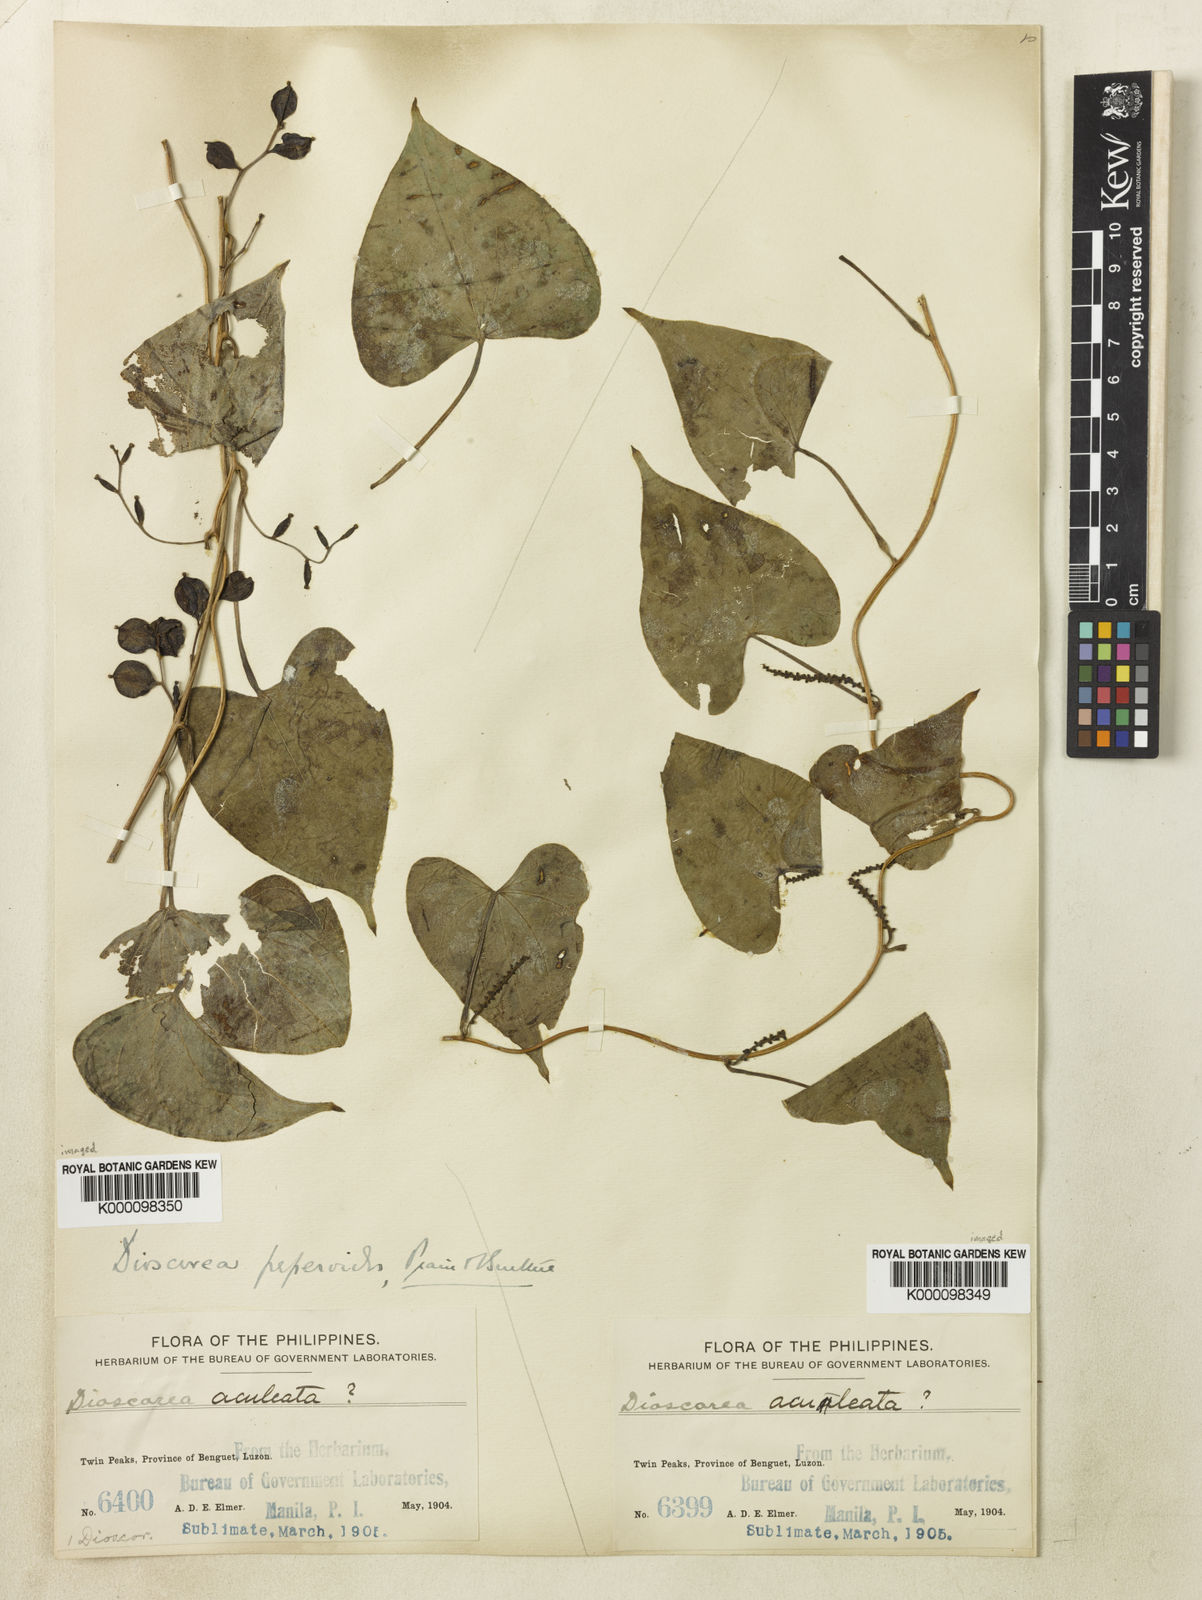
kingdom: Plantae
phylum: Tracheophyta
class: Liliopsida
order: Dioscoreales
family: Dioscoreaceae
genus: Dioscorea
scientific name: Dioscorea peperoides
